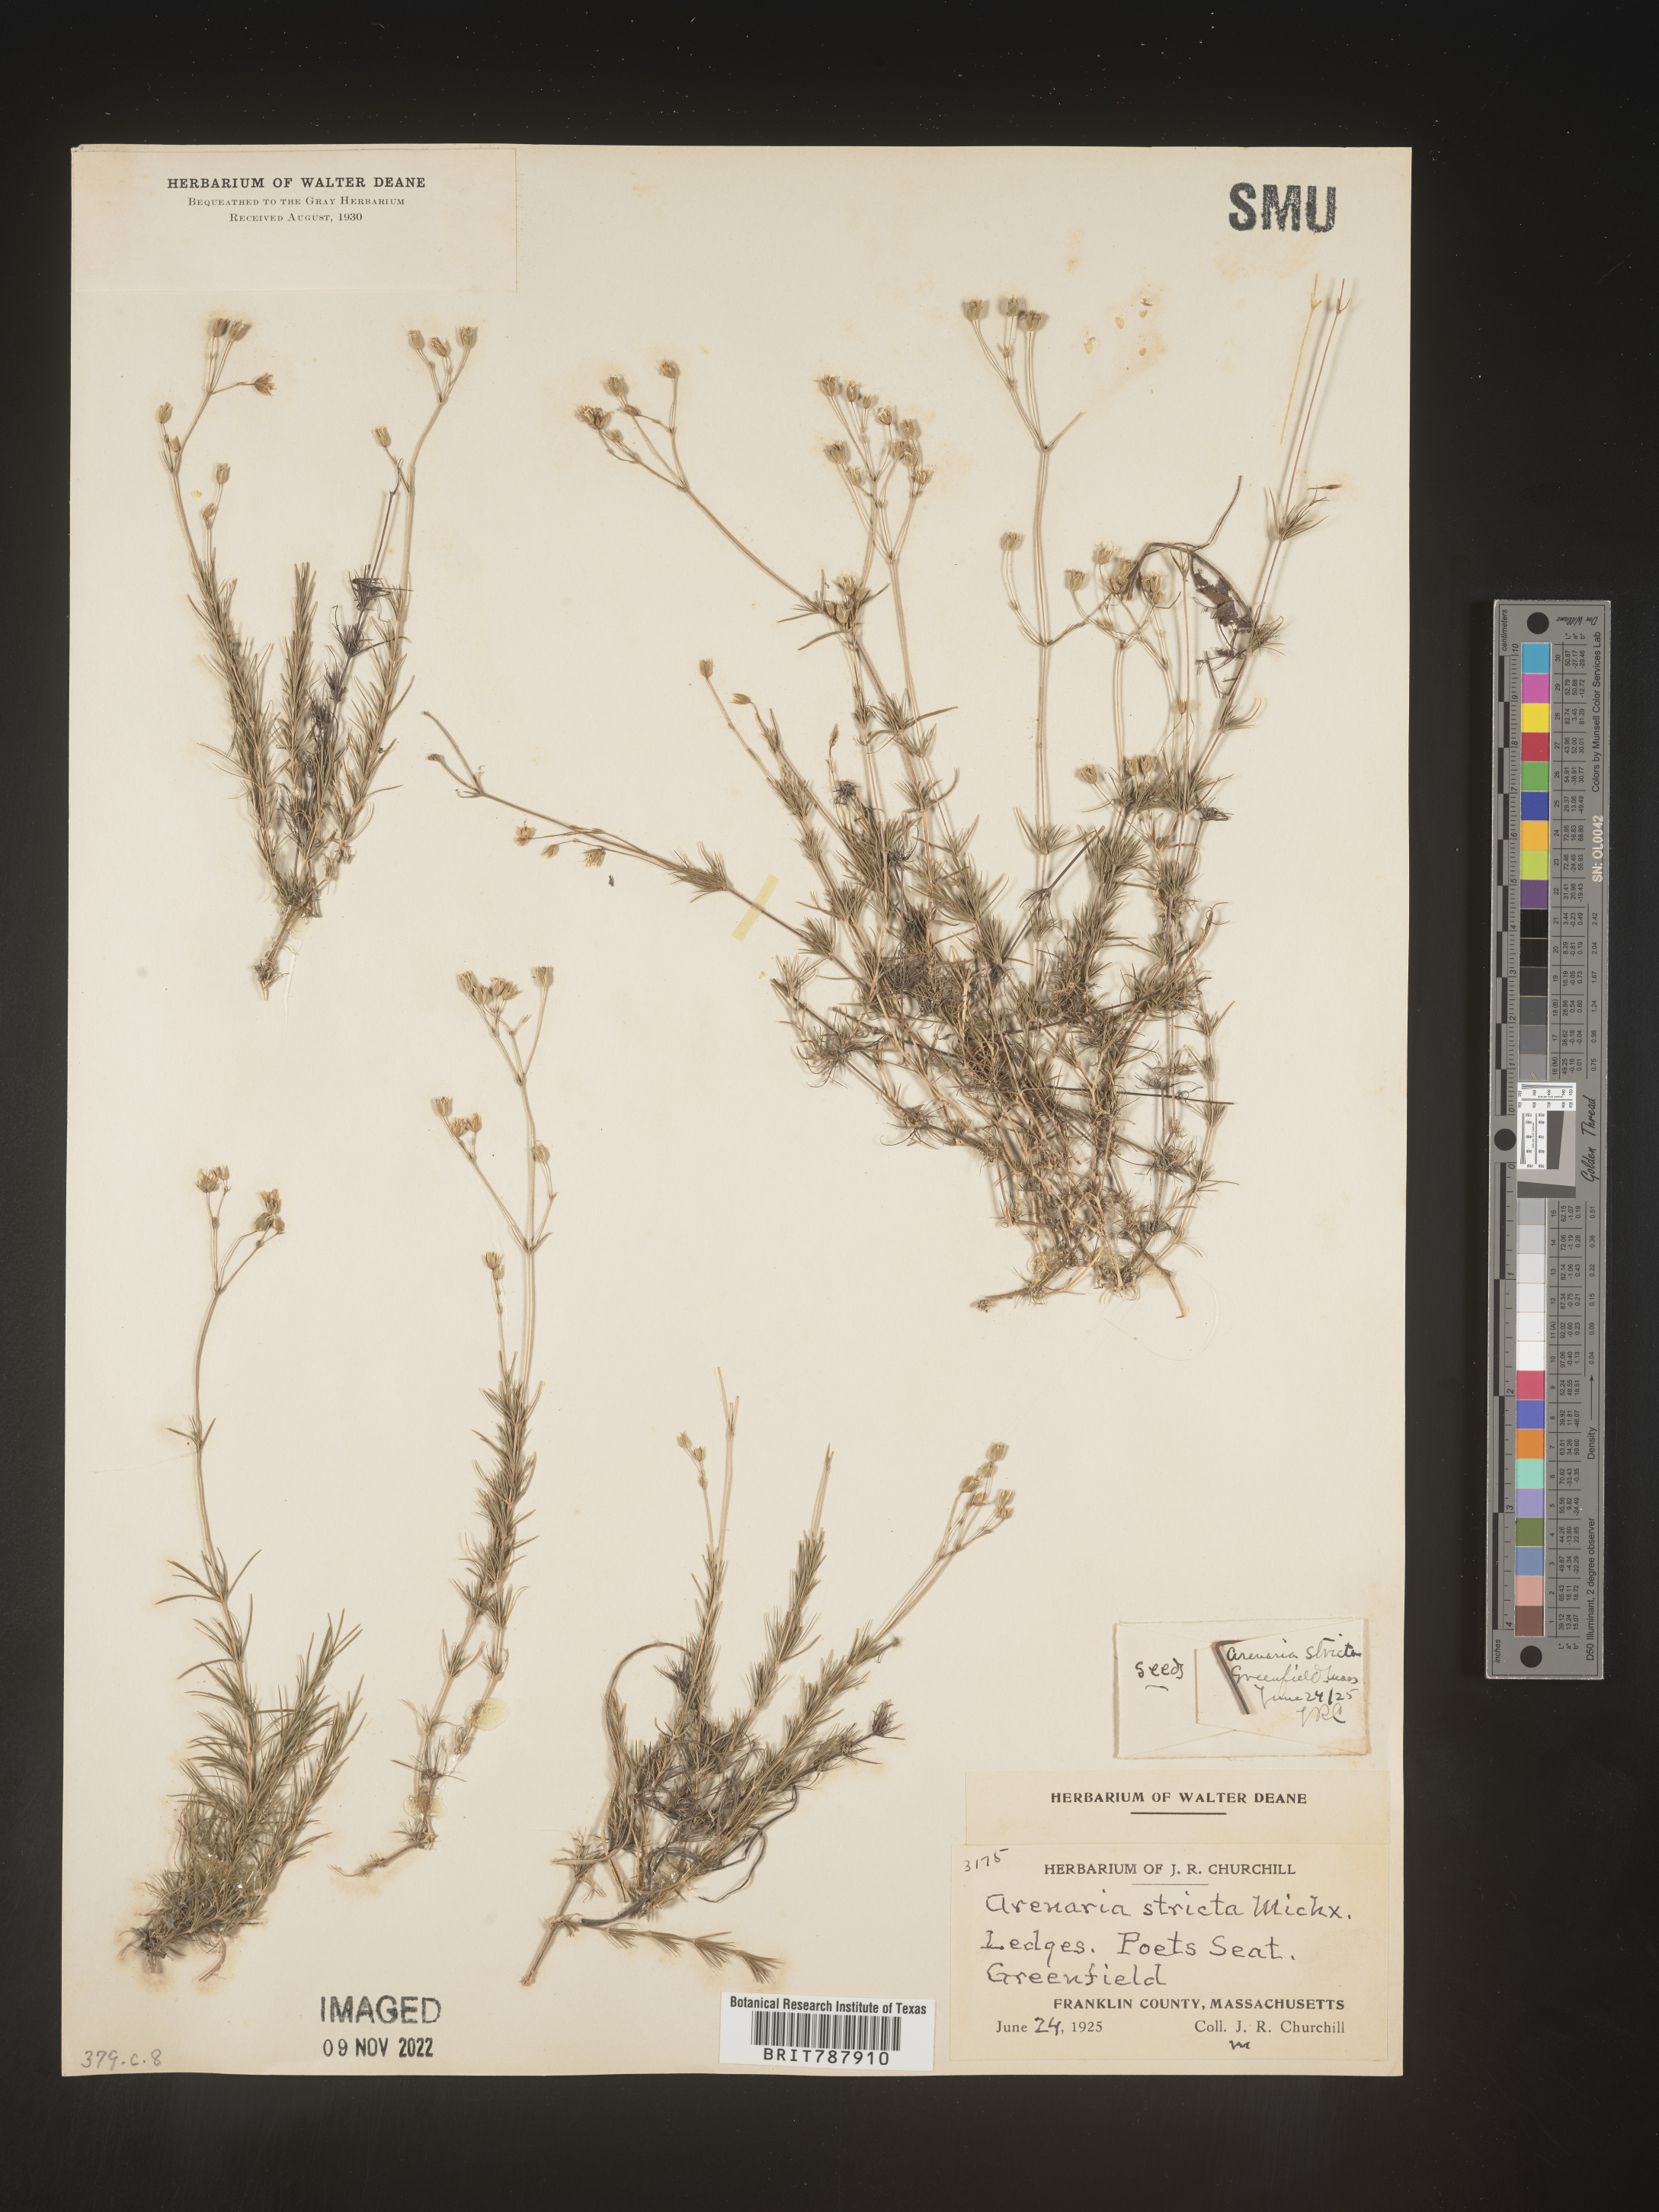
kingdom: Plantae
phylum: Tracheophyta
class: Magnoliopsida
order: Caryophyllales
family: Caryophyllaceae
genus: Sabulina
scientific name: Sabulina michauxii
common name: Michaux's stitchwort
